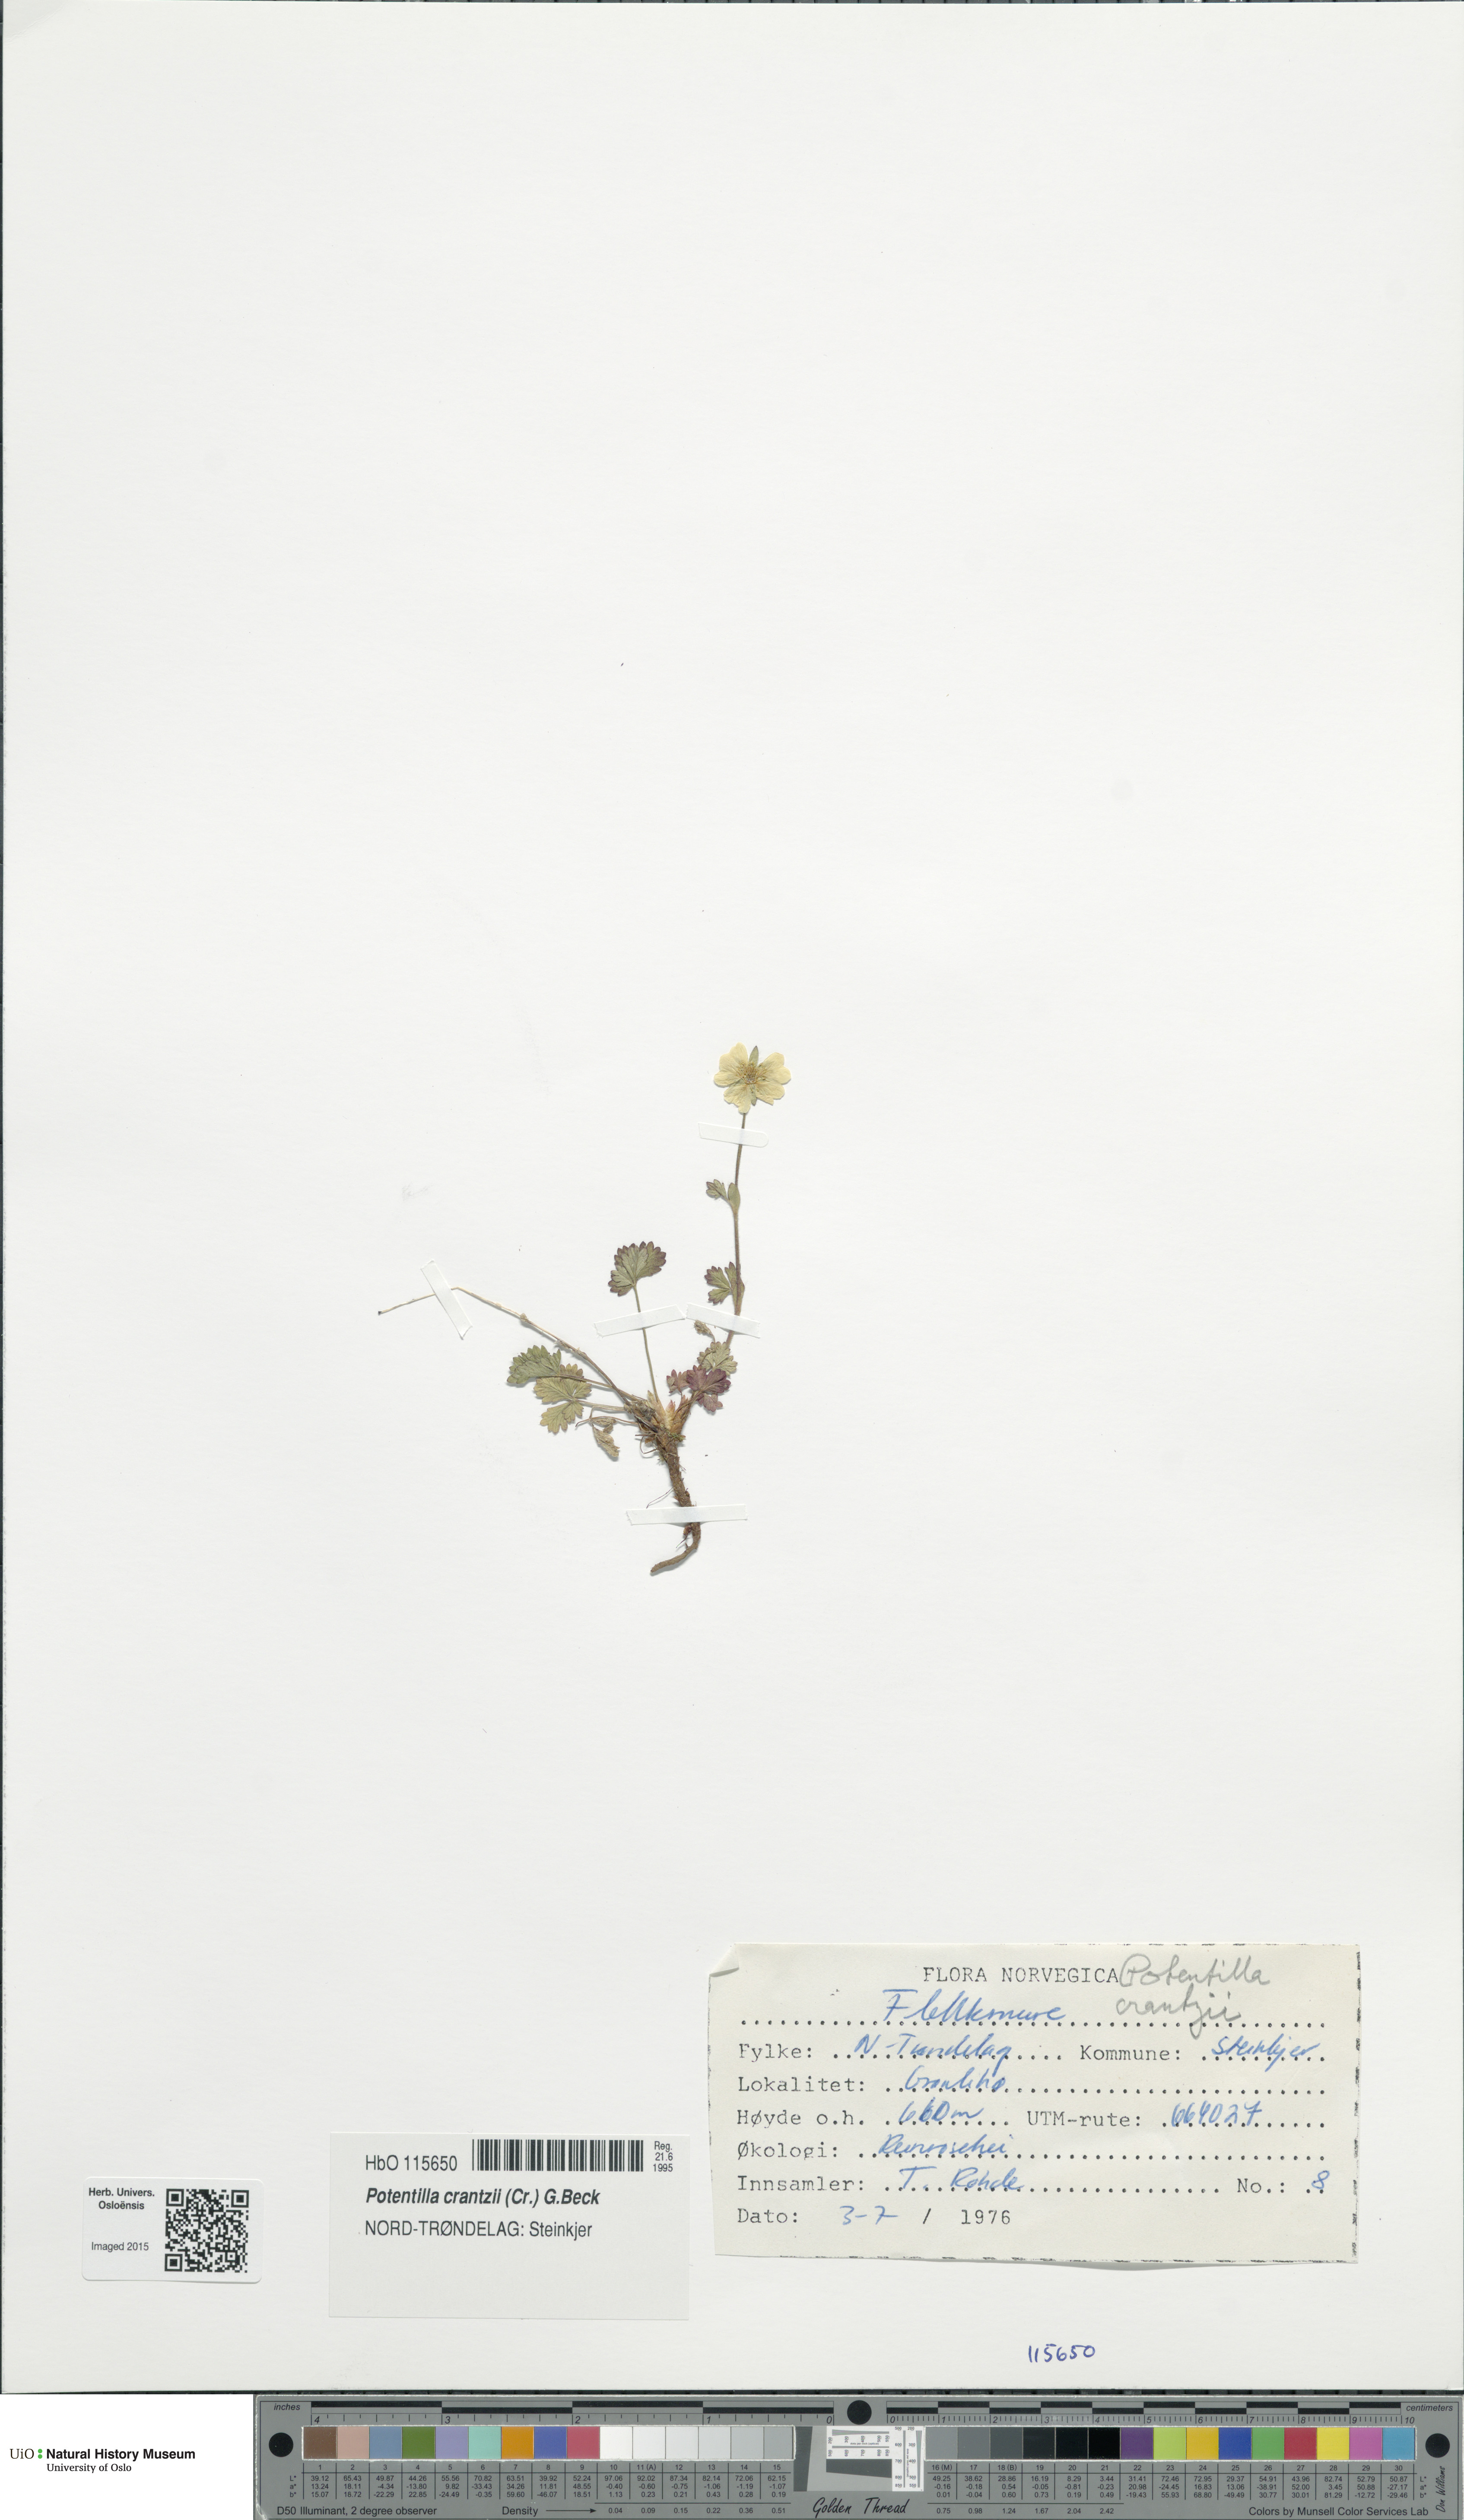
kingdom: Plantae
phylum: Tracheophyta
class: Magnoliopsida
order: Rosales
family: Rosaceae
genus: Potentilla
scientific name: Potentilla crantzii
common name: Alpine cinquefoil
